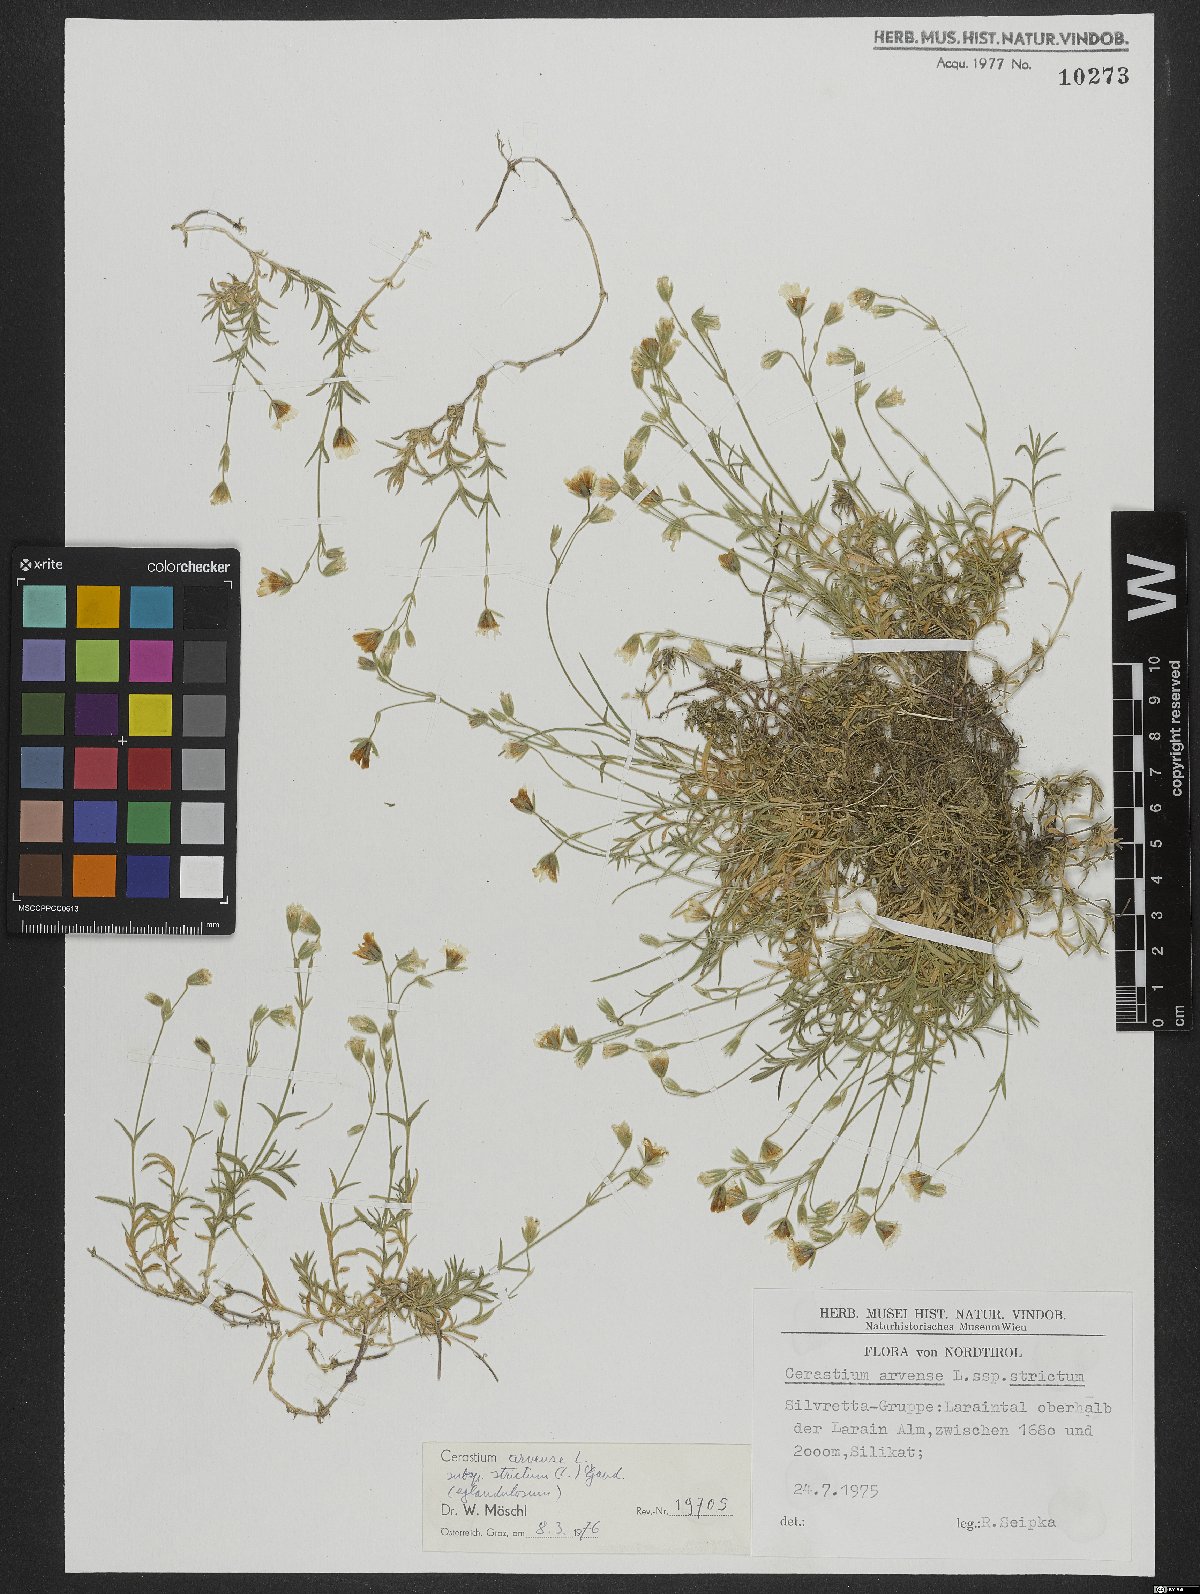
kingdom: Plantae
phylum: Tracheophyta
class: Magnoliopsida
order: Caryophyllales
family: Caryophyllaceae
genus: Cerastium
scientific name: Cerastium elongatum
